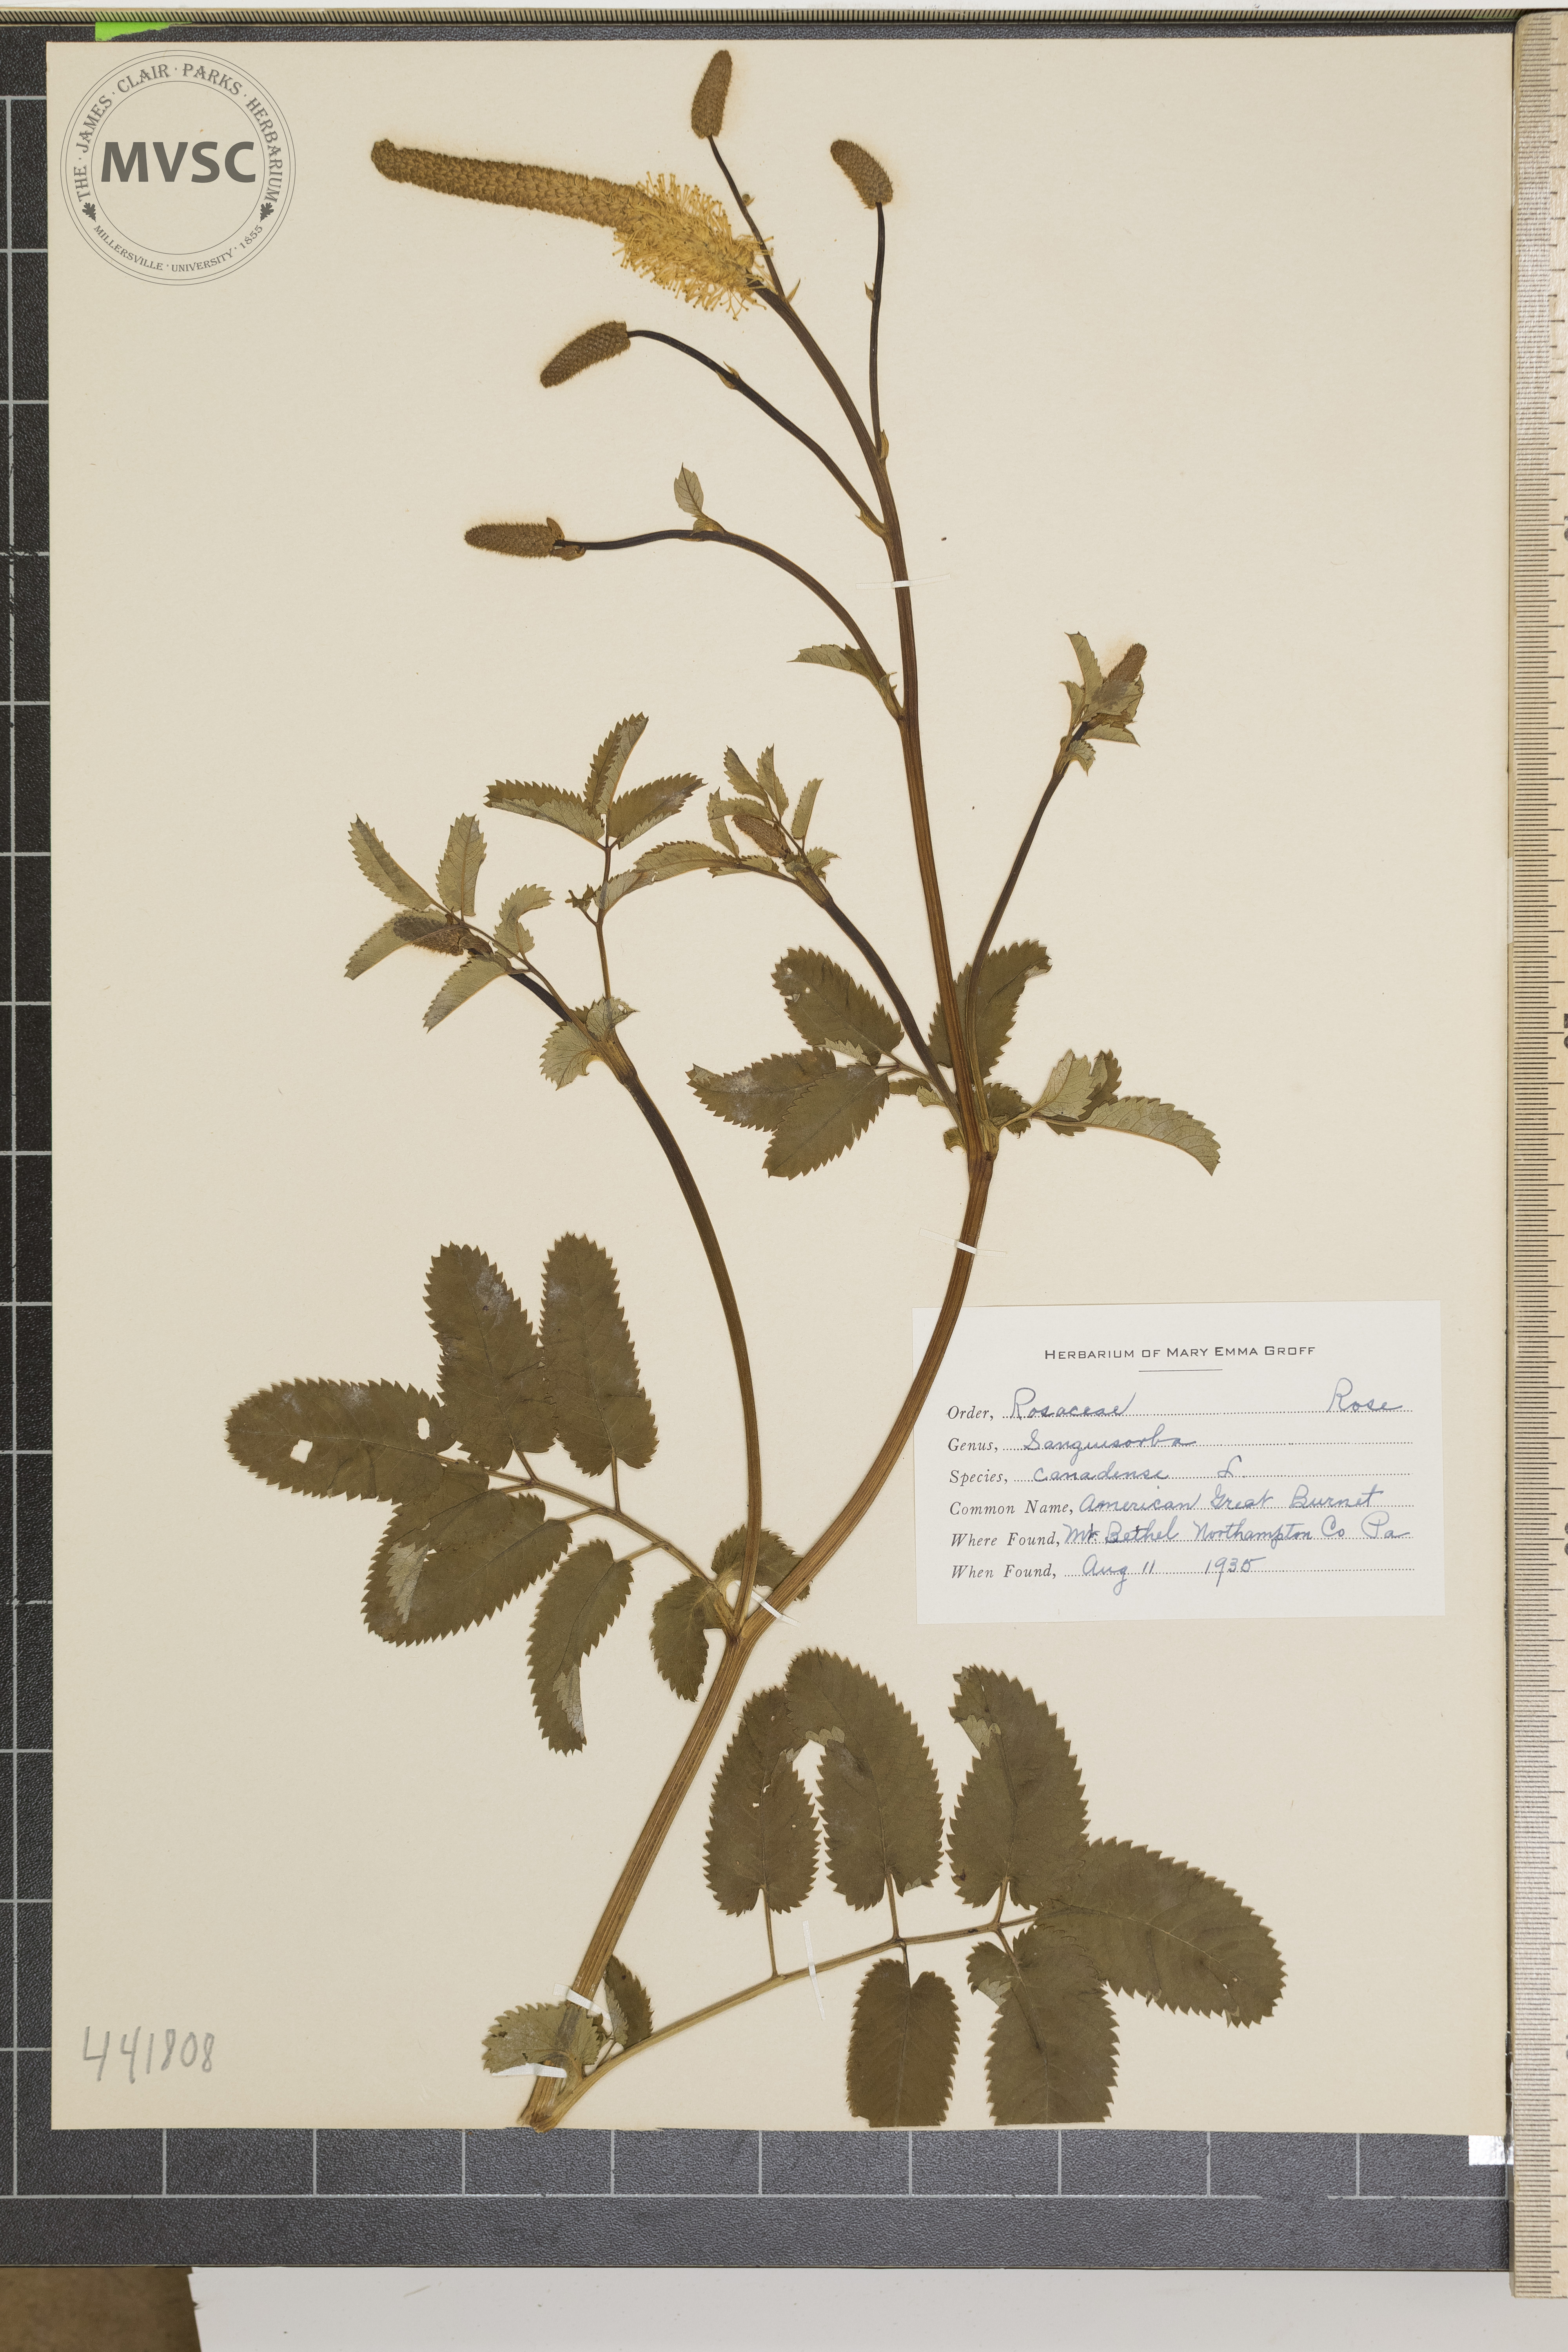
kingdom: Plantae
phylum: Tracheophyta
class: Magnoliopsida
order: Ranunculales
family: Papaveraceae
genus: Sanguinaria
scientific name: Sanguinaria canadensis
